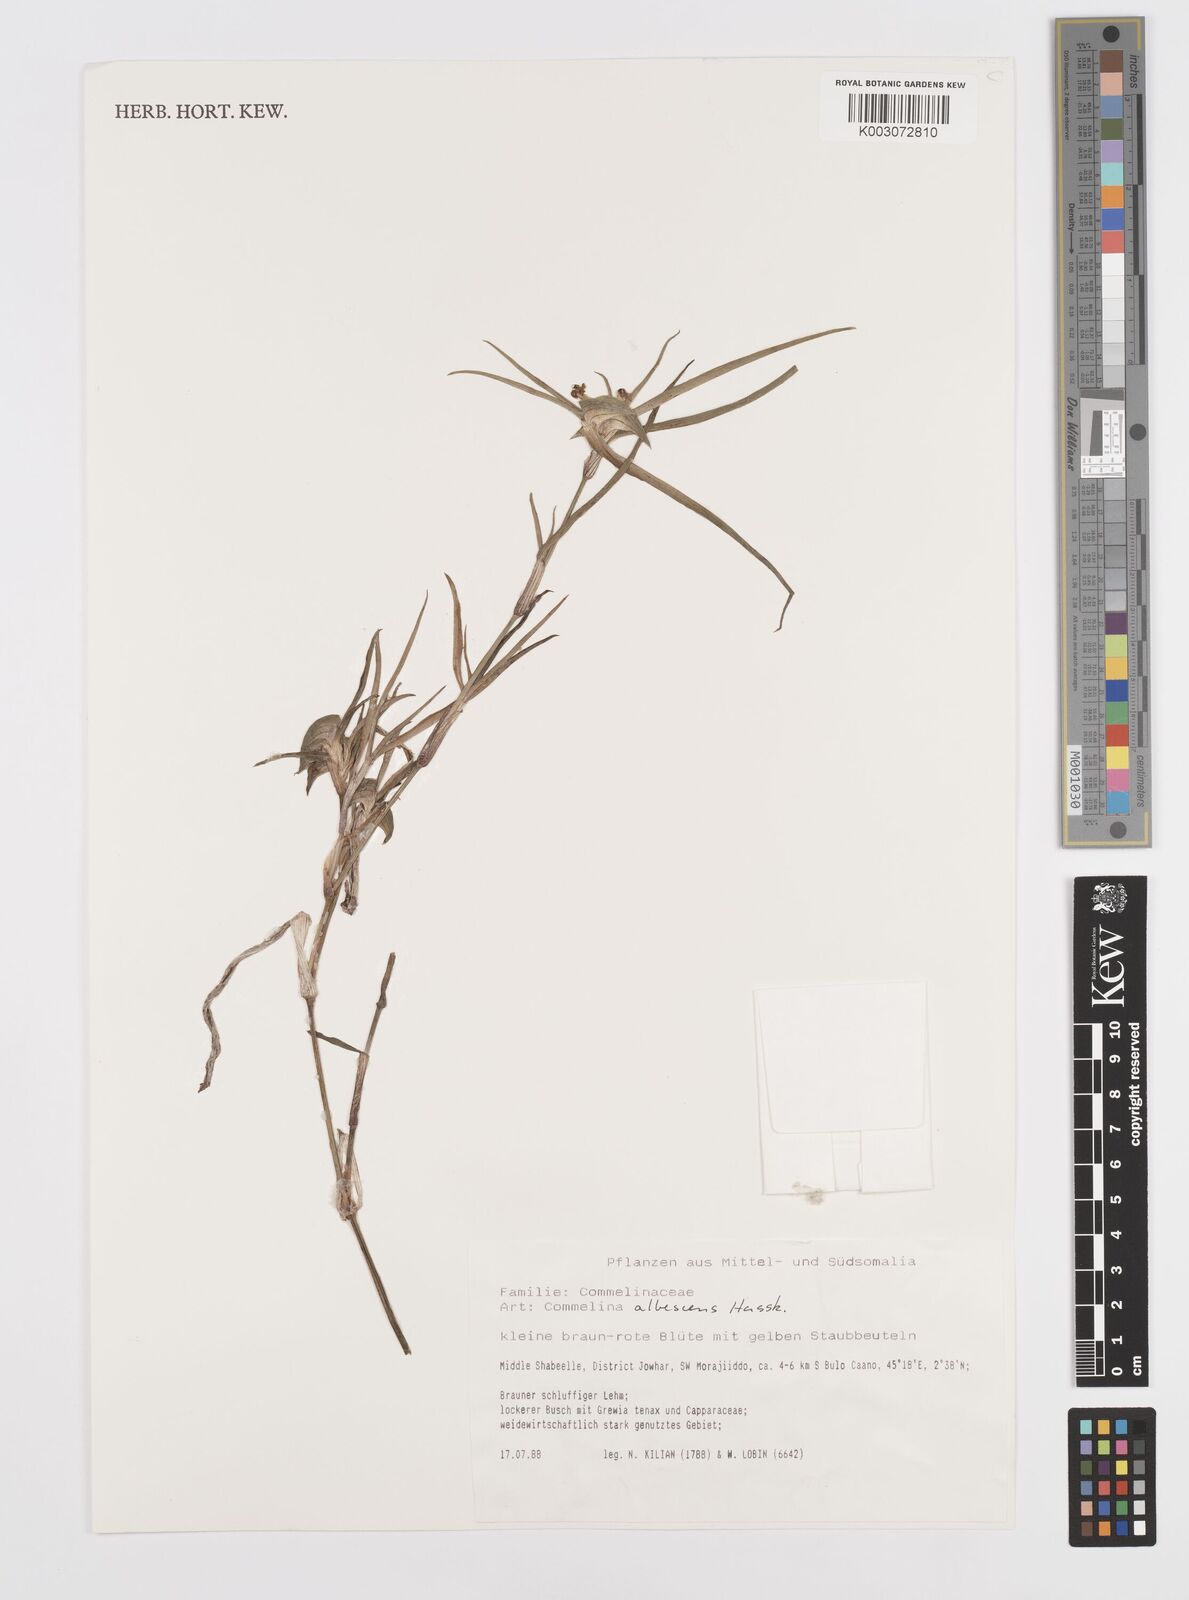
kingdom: Plantae
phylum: Tracheophyta
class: Liliopsida
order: Commelinales
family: Commelinaceae
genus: Commelina
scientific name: Commelina albescens
